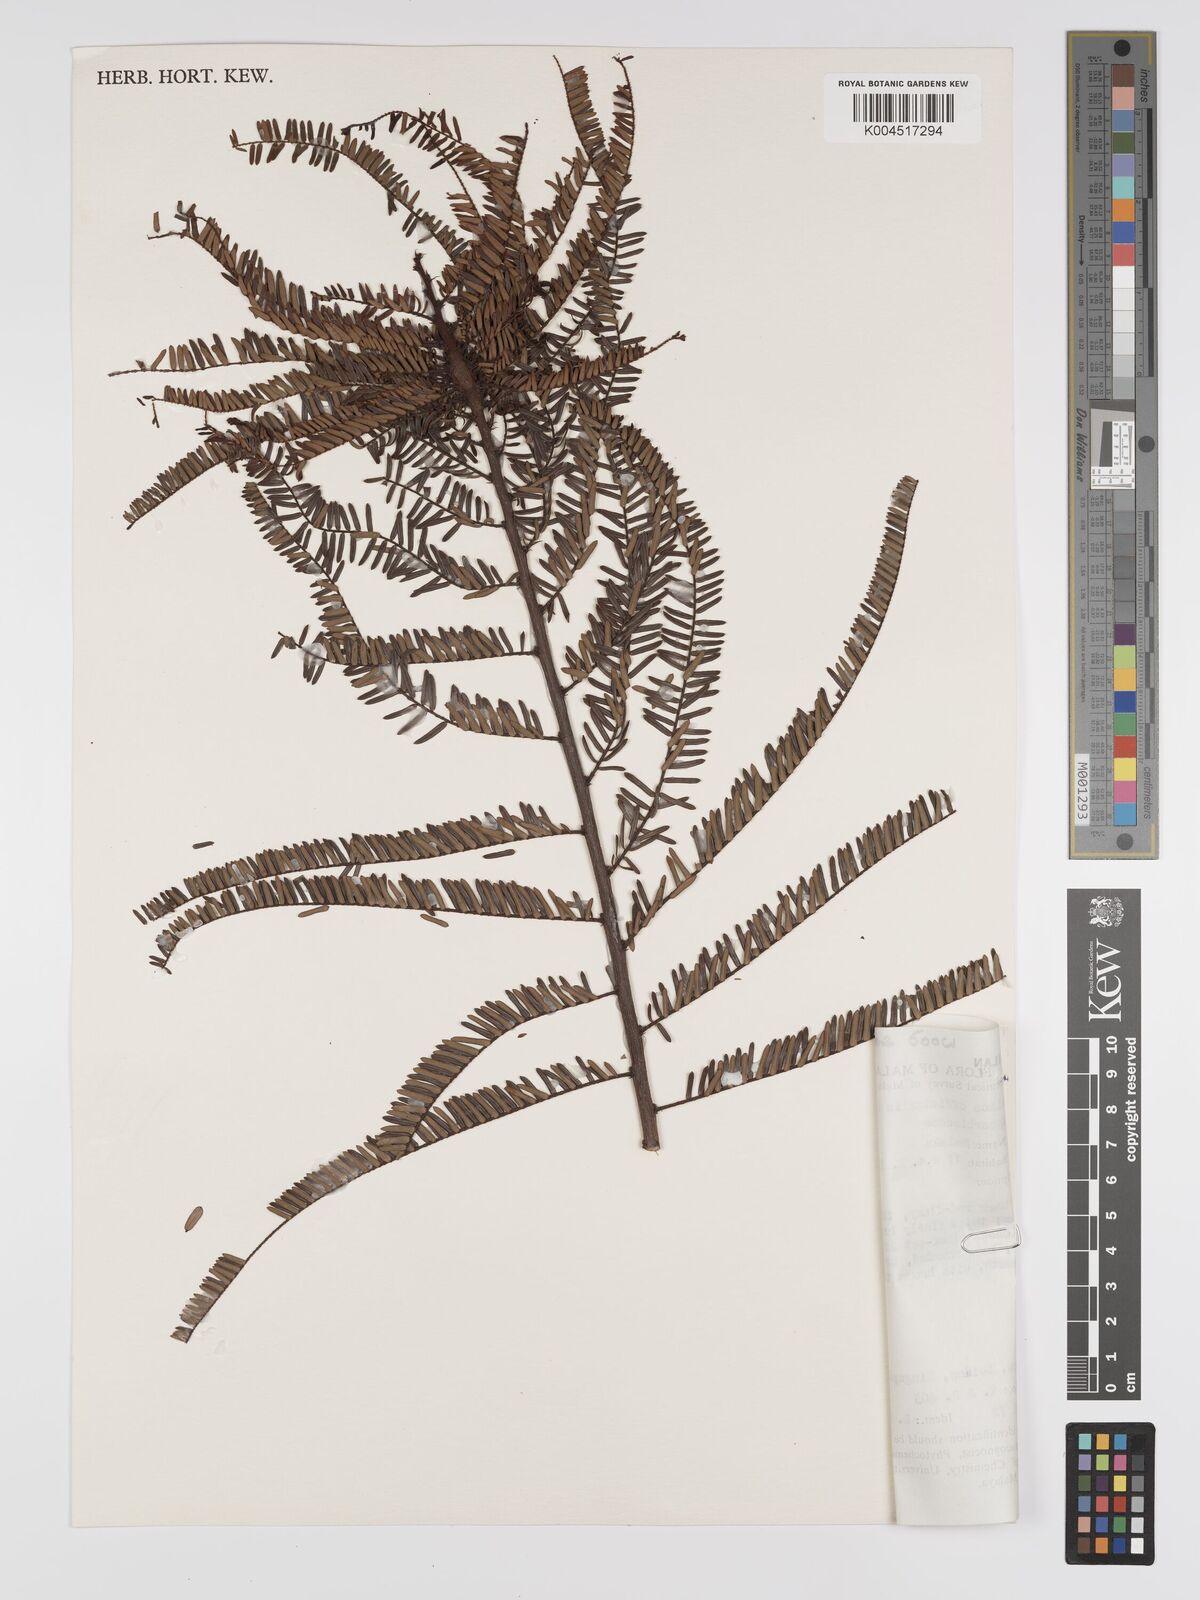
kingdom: Plantae
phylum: Tracheophyta
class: Magnoliopsida
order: Malpighiales
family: Phyllanthaceae
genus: Phyllanthus
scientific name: Phyllanthus emblica
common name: Indian gooseberry
